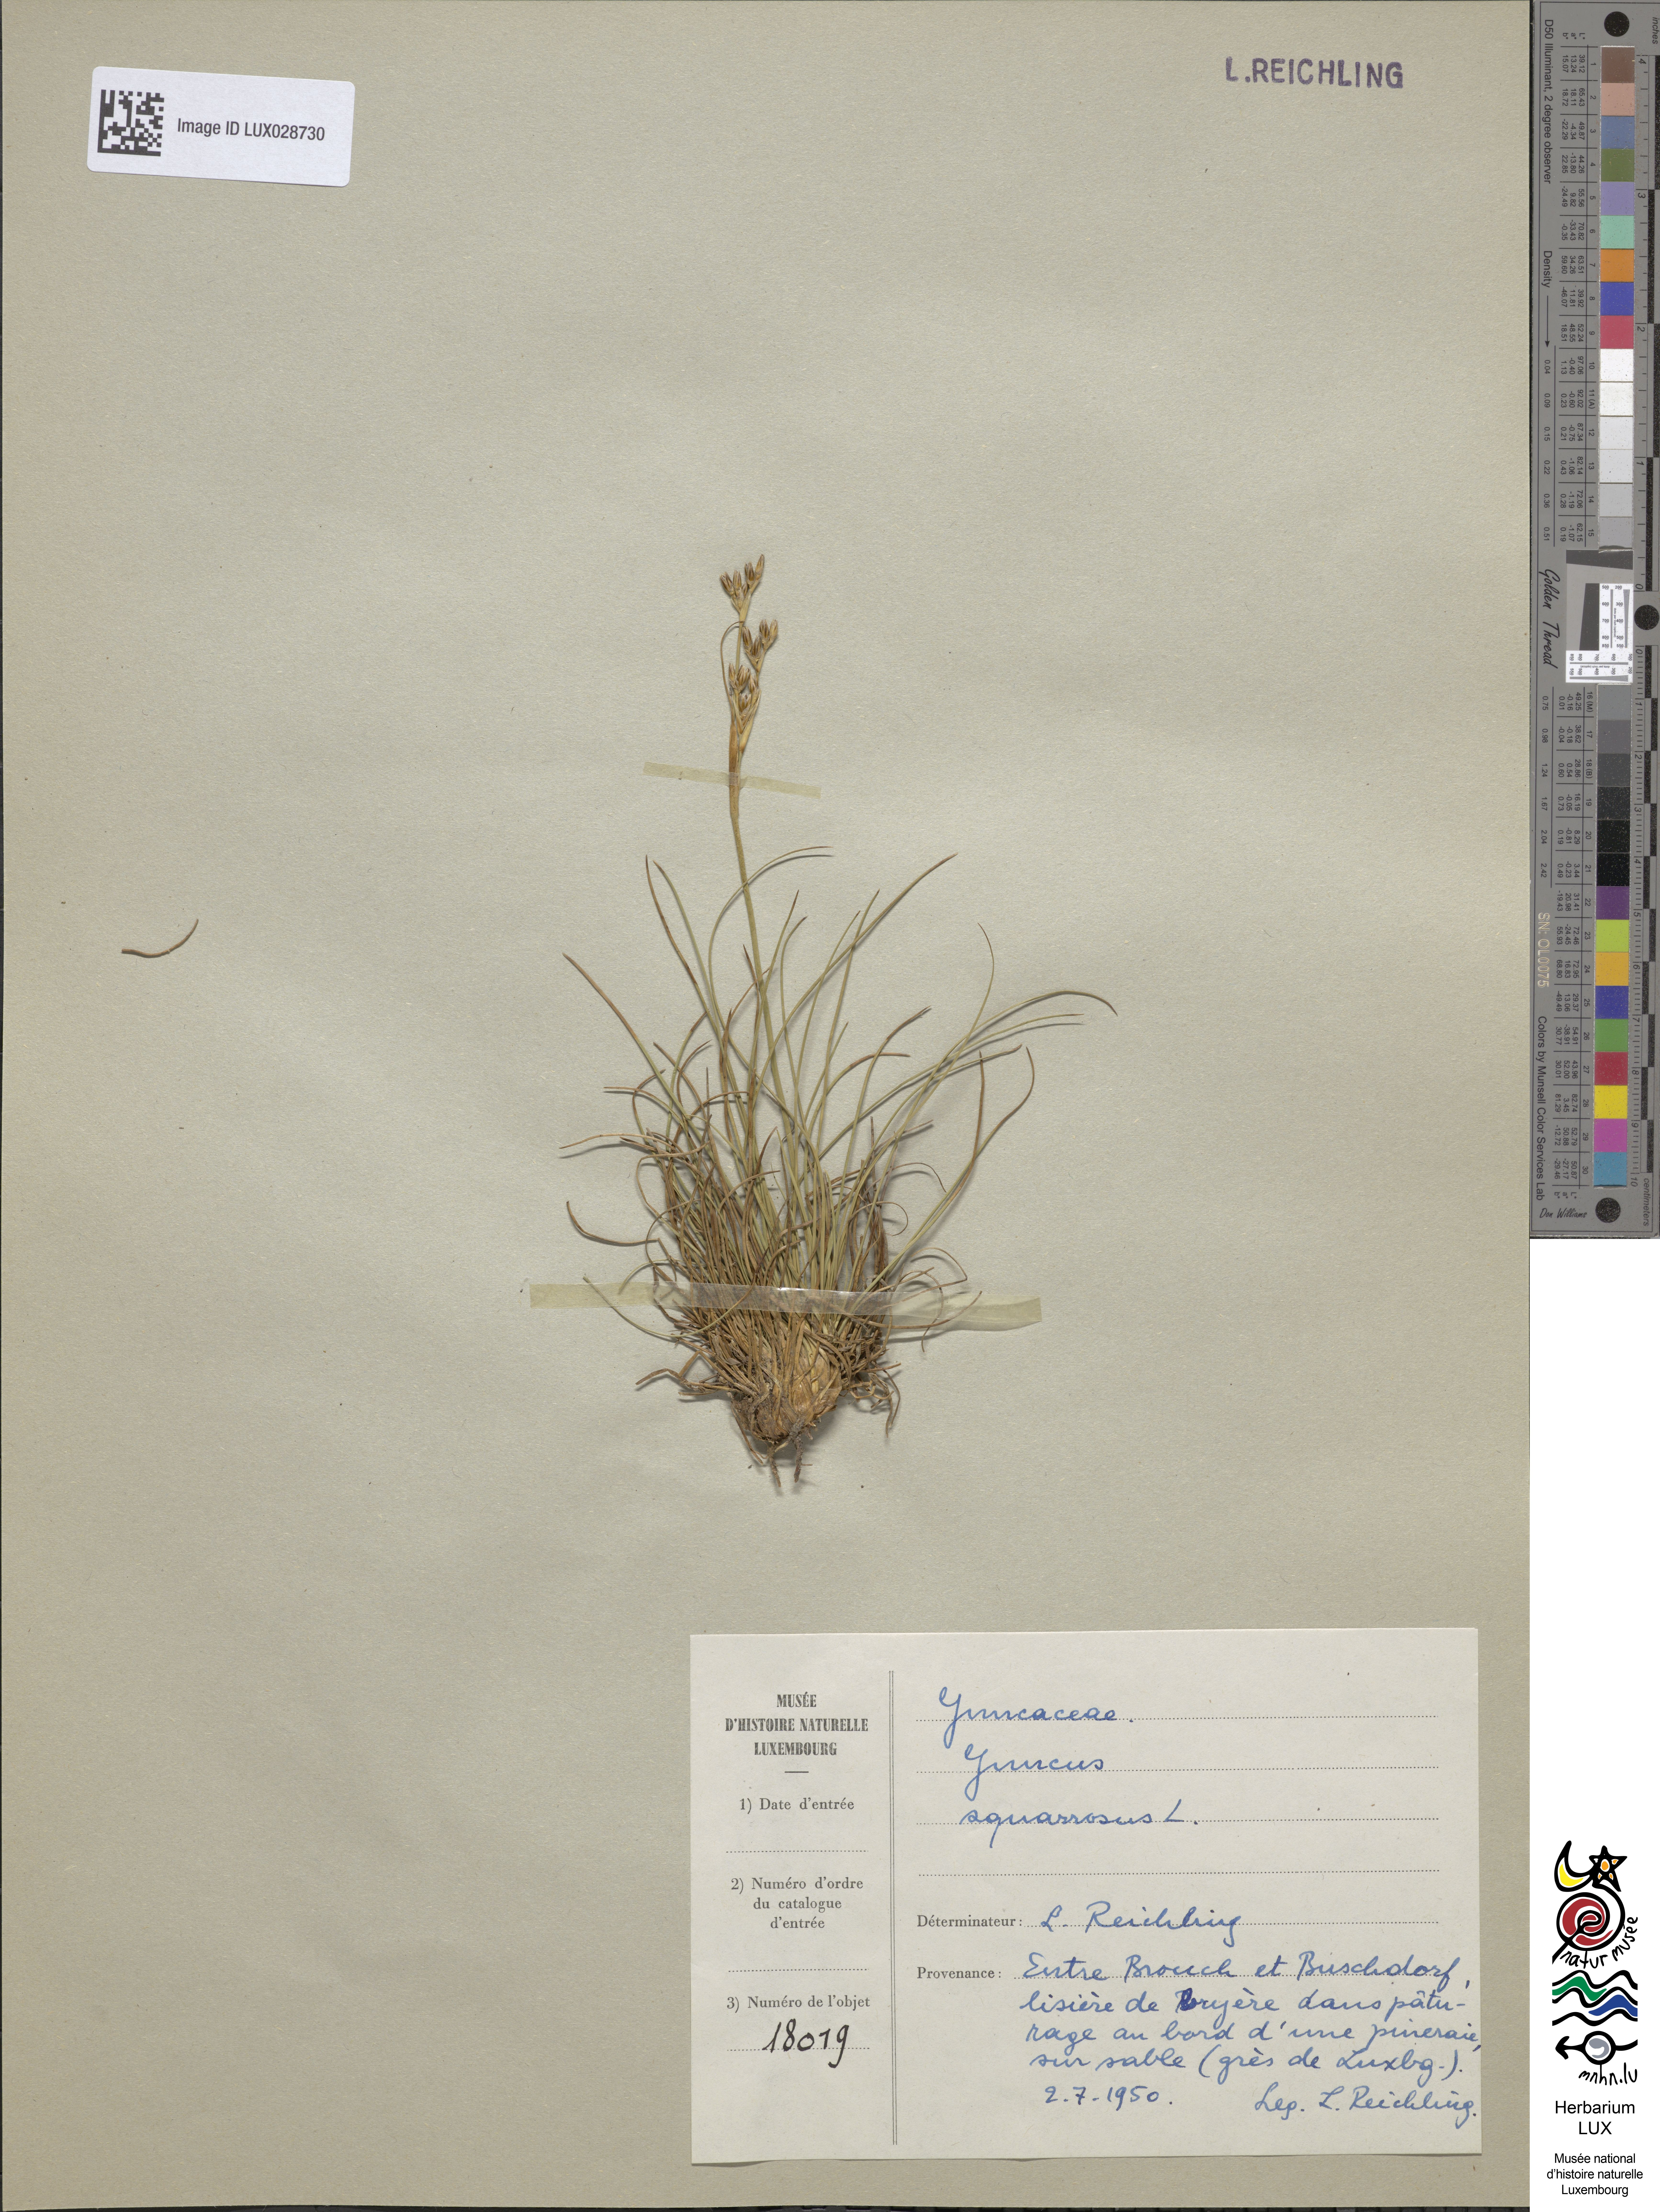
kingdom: Plantae
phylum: Tracheophyta
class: Liliopsida
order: Poales
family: Juncaceae
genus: Juncus
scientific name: Juncus squarrosus
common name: Heath rush
